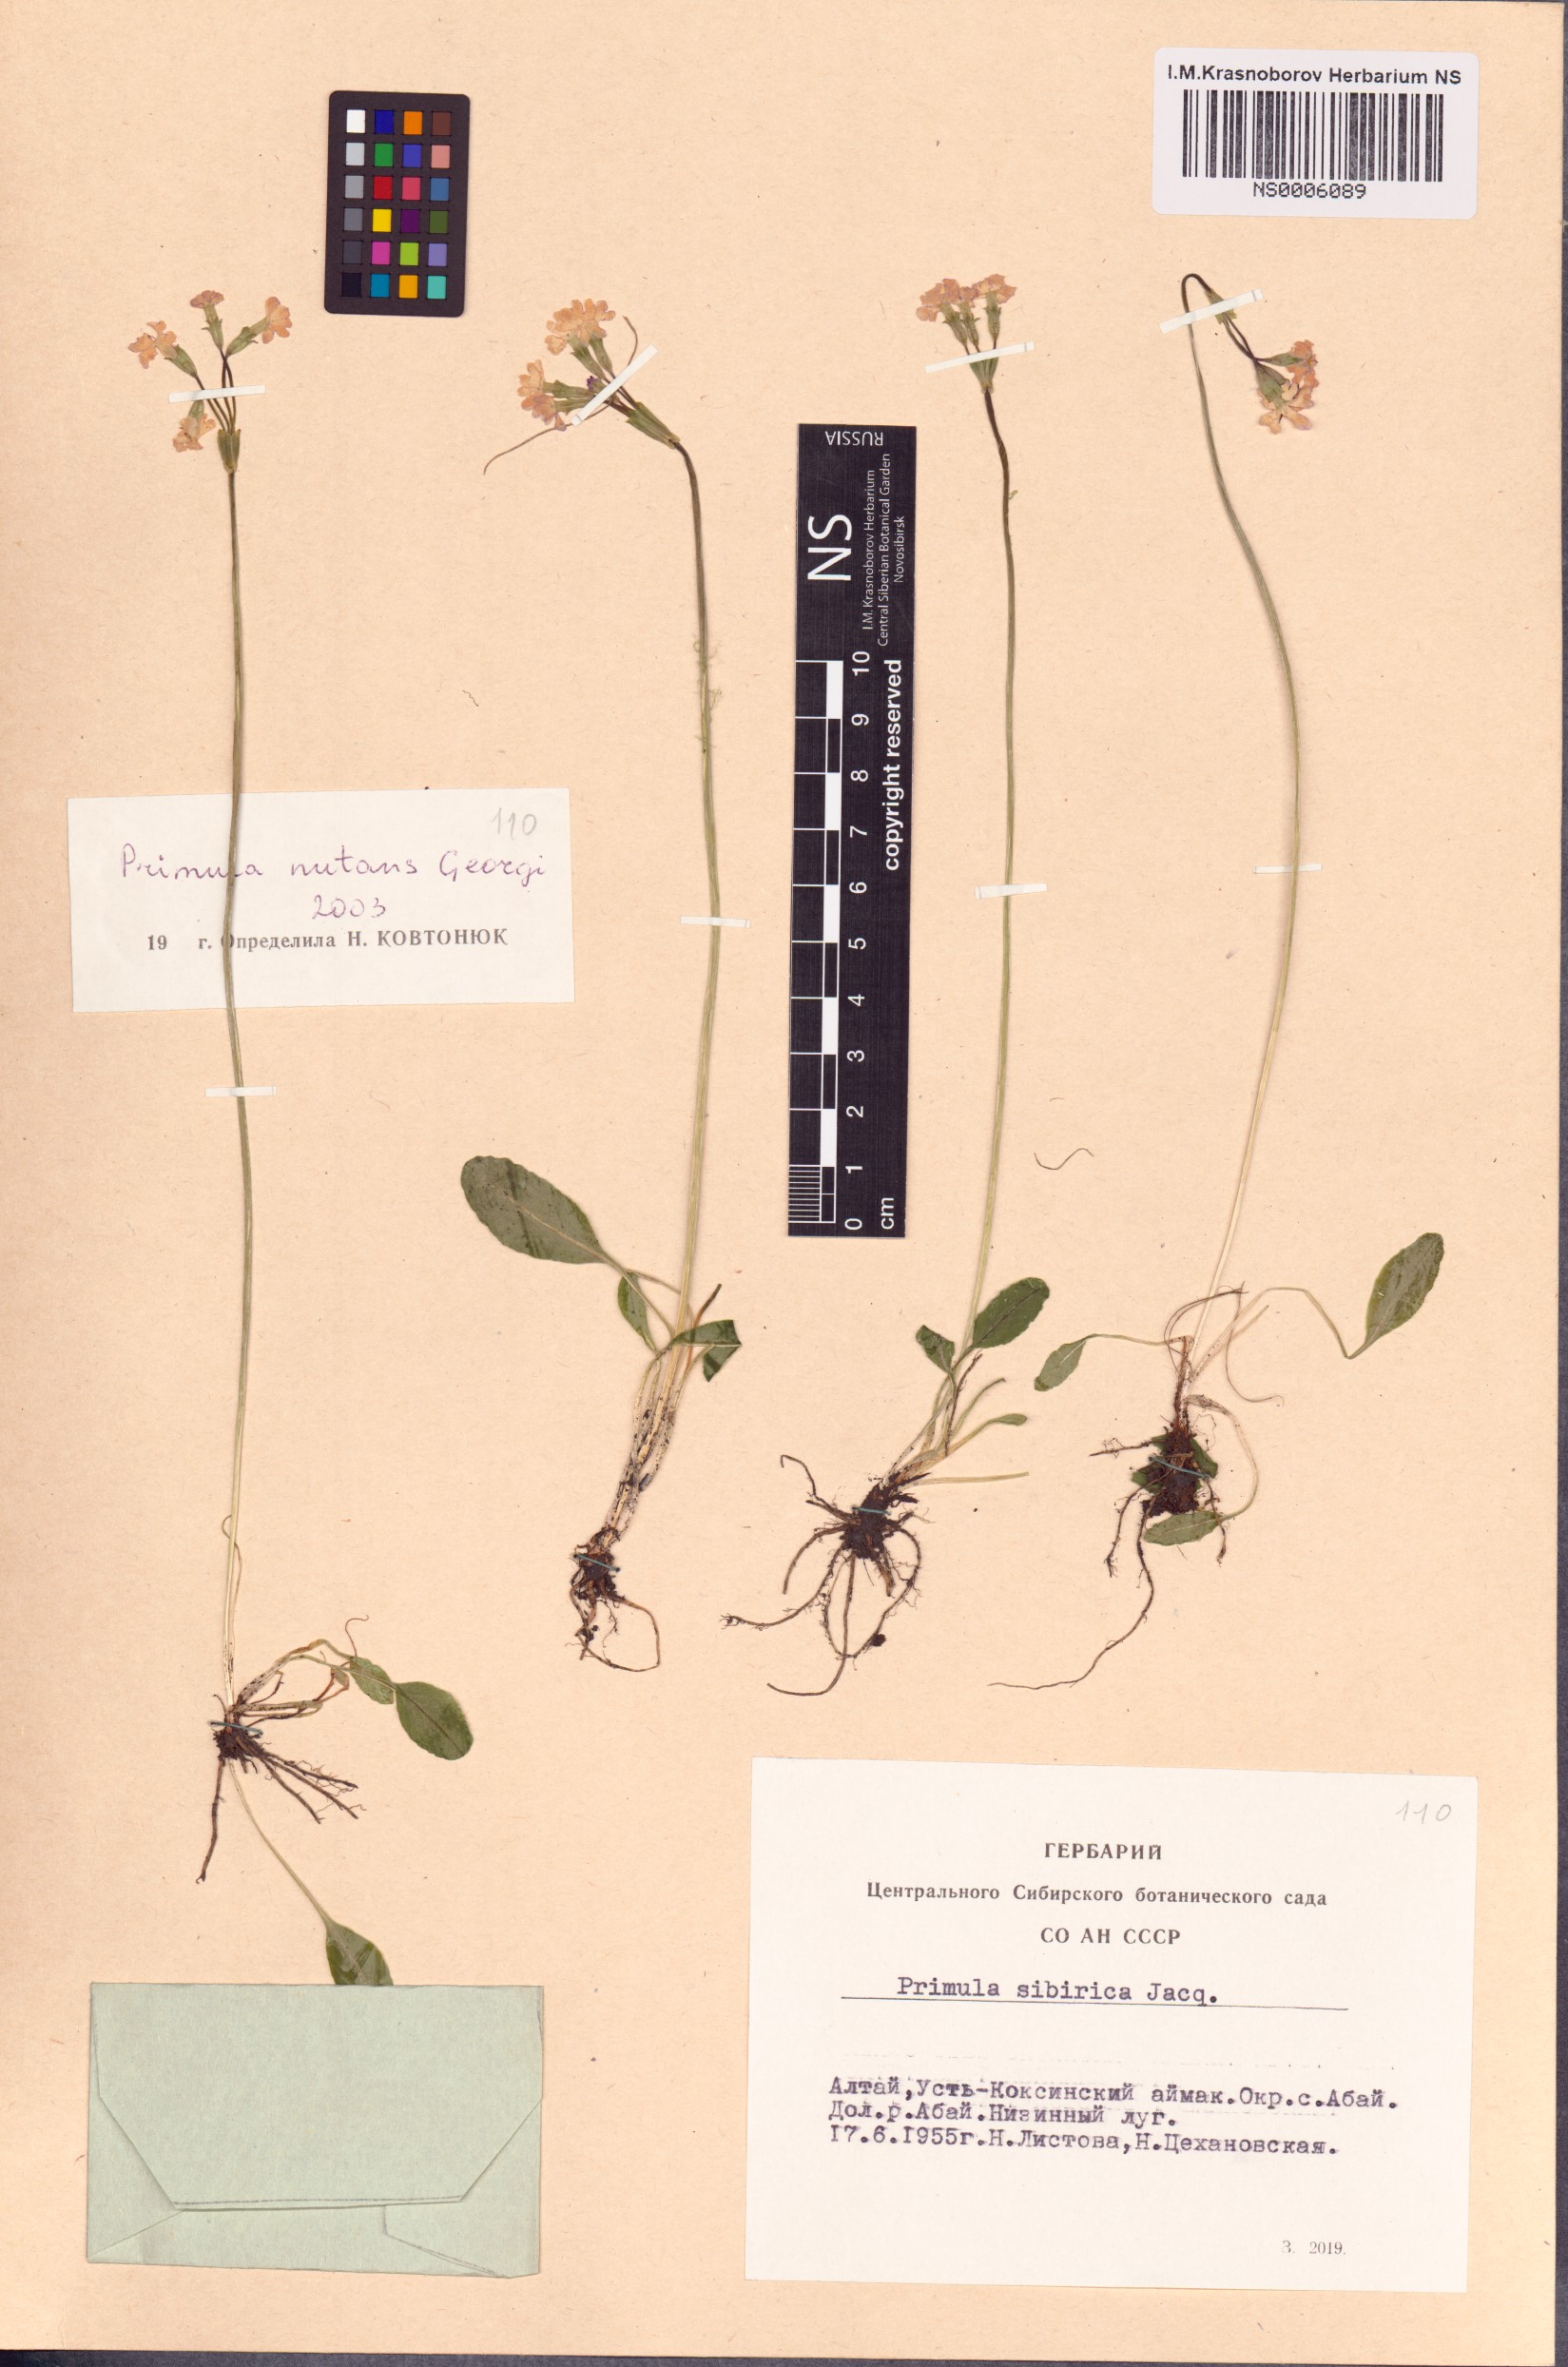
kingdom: Plantae
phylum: Tracheophyta
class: Magnoliopsida
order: Ericales
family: Primulaceae
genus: Primula
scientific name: Primula nutans
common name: Siberian primrose
